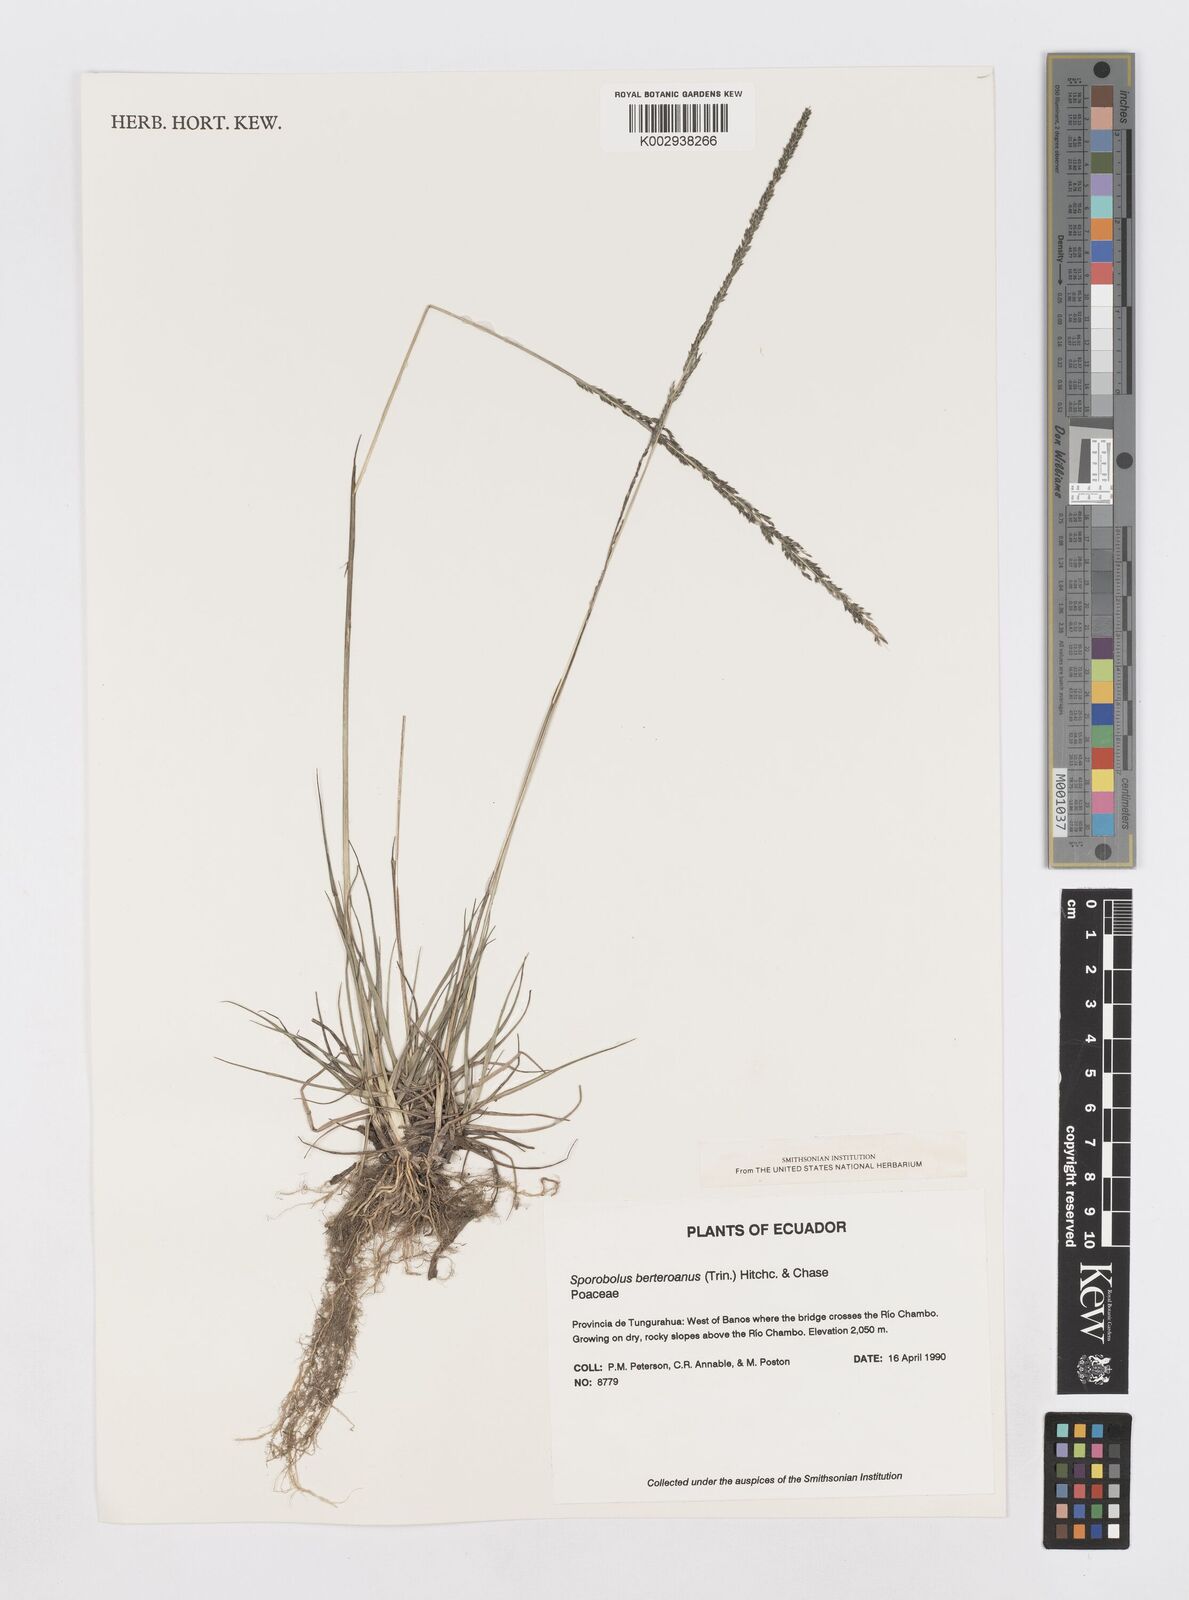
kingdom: Plantae
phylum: Tracheophyta
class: Liliopsida
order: Poales
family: Poaceae
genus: Sporobolus
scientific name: Sporobolus
